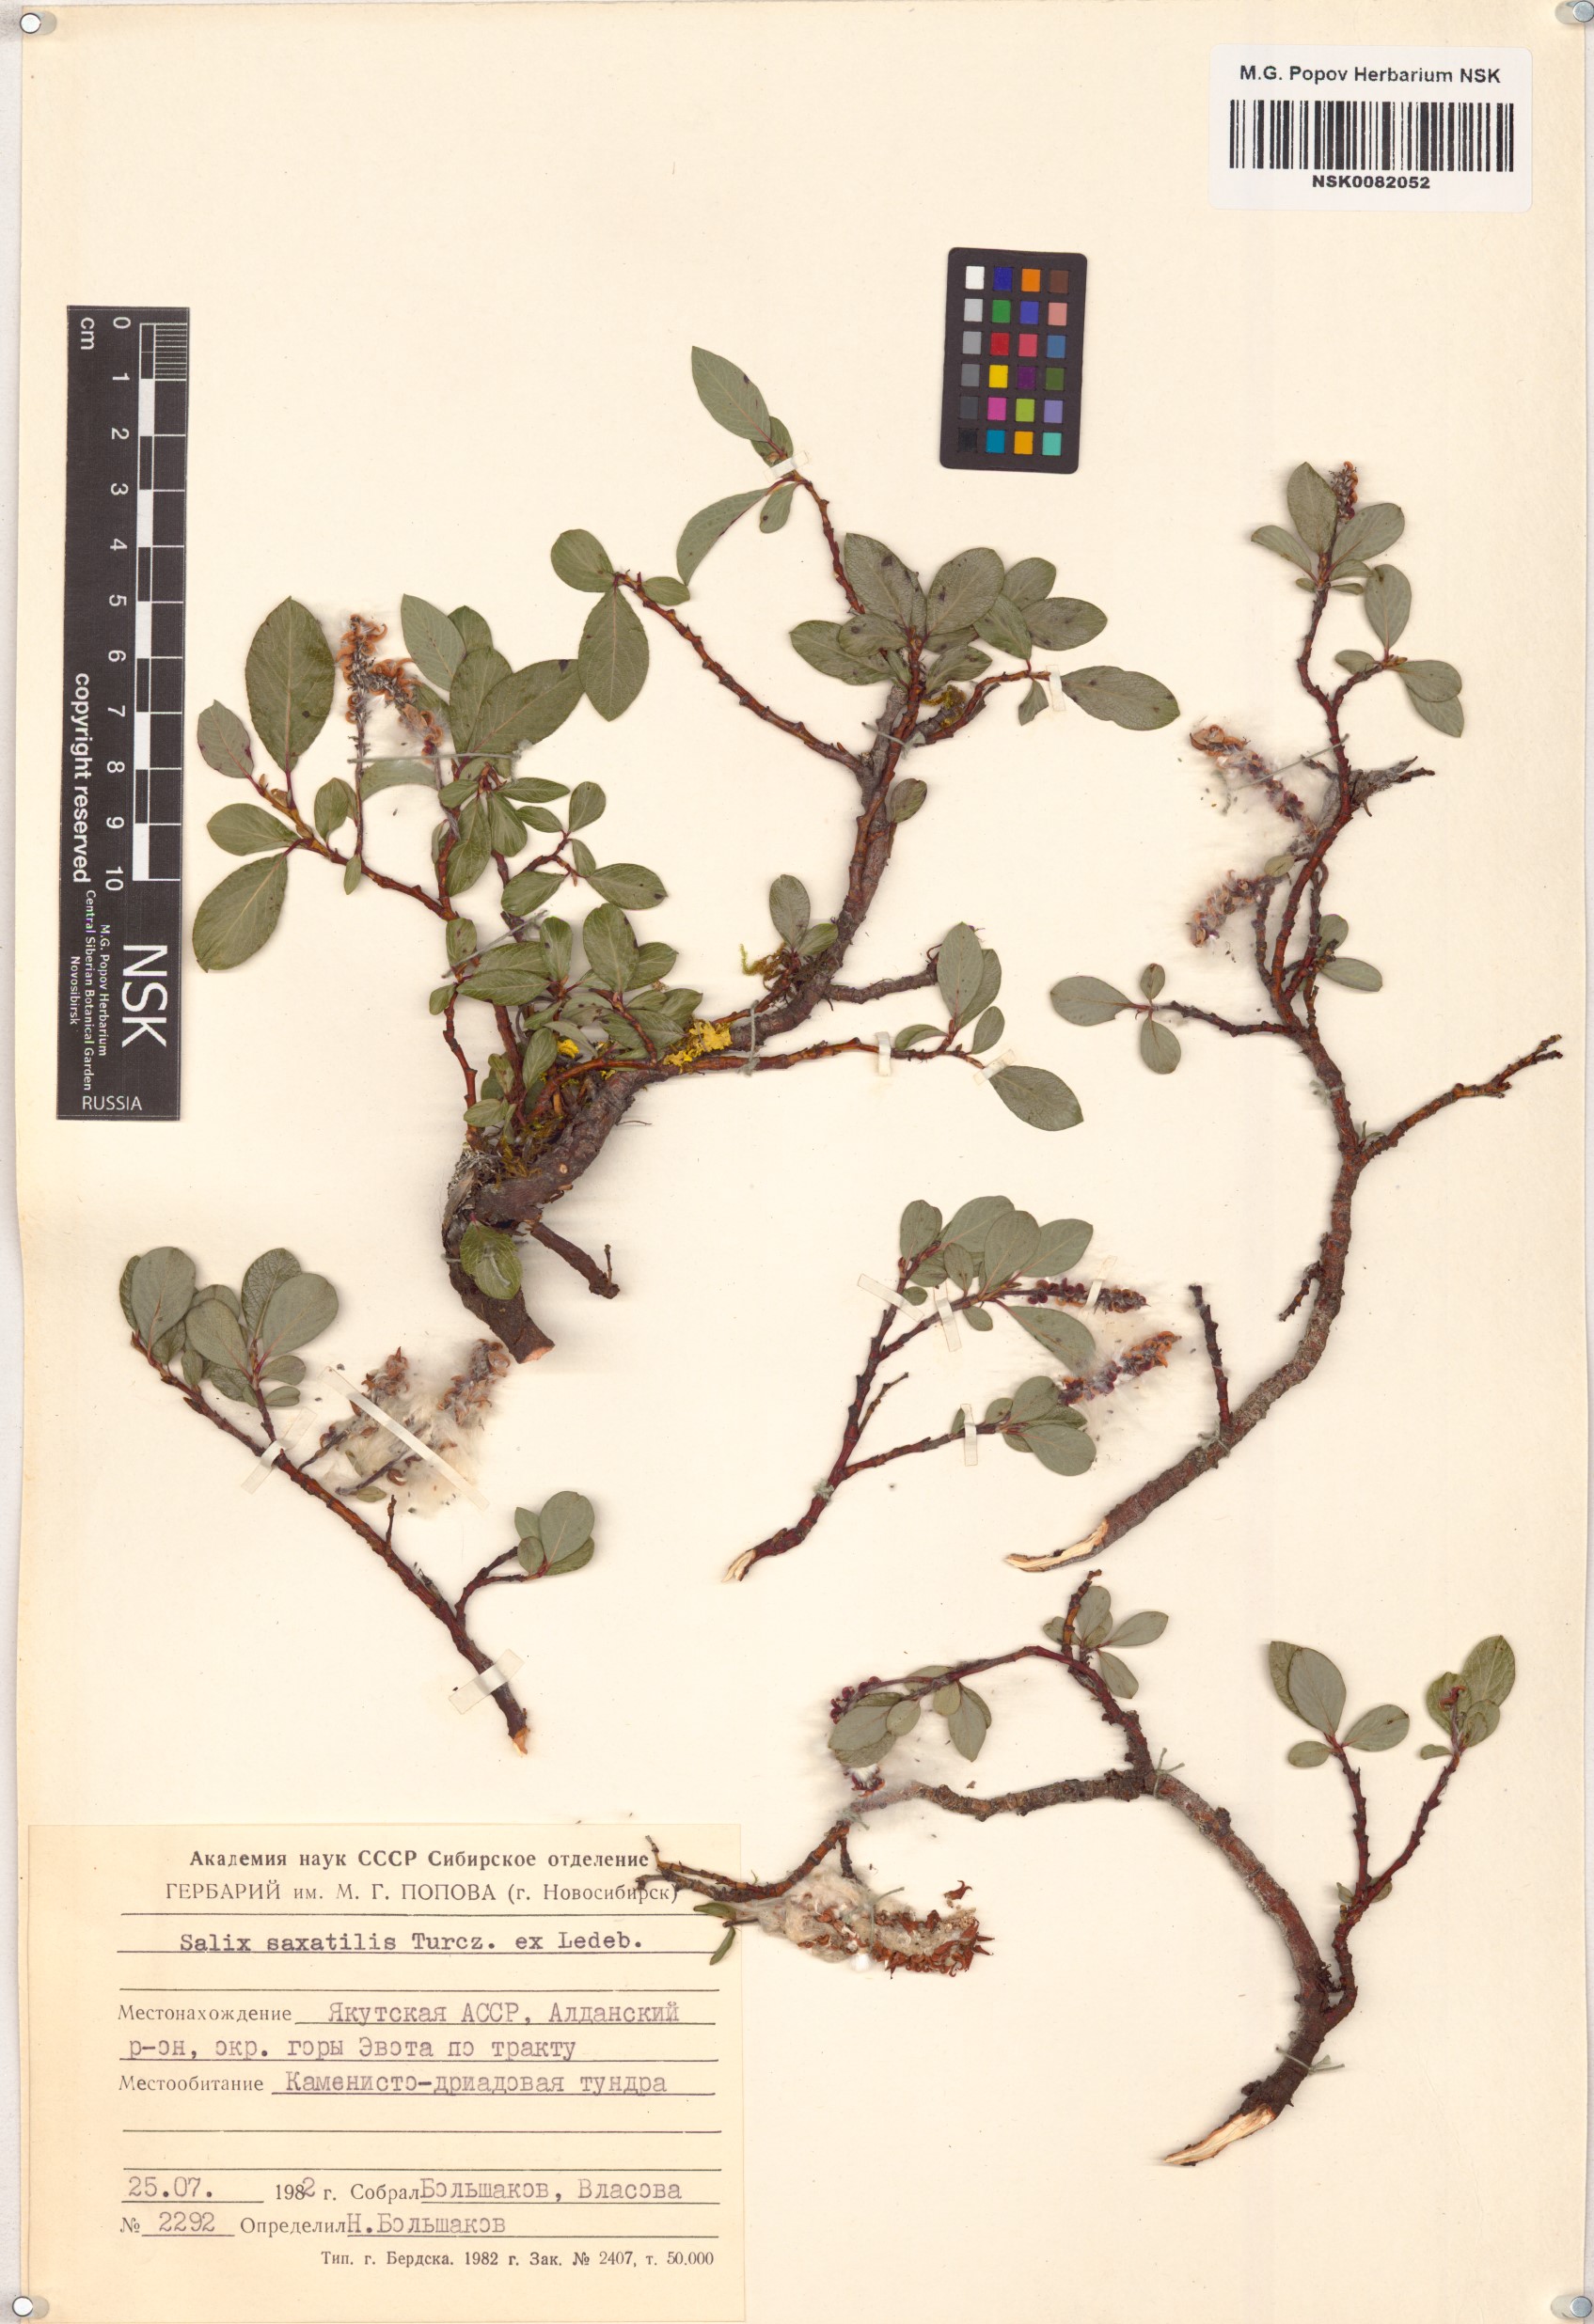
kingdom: Plantae
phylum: Tracheophyta
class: Magnoliopsida
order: Malpighiales
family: Salicaceae
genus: Salix
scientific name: Salix saxatilis
